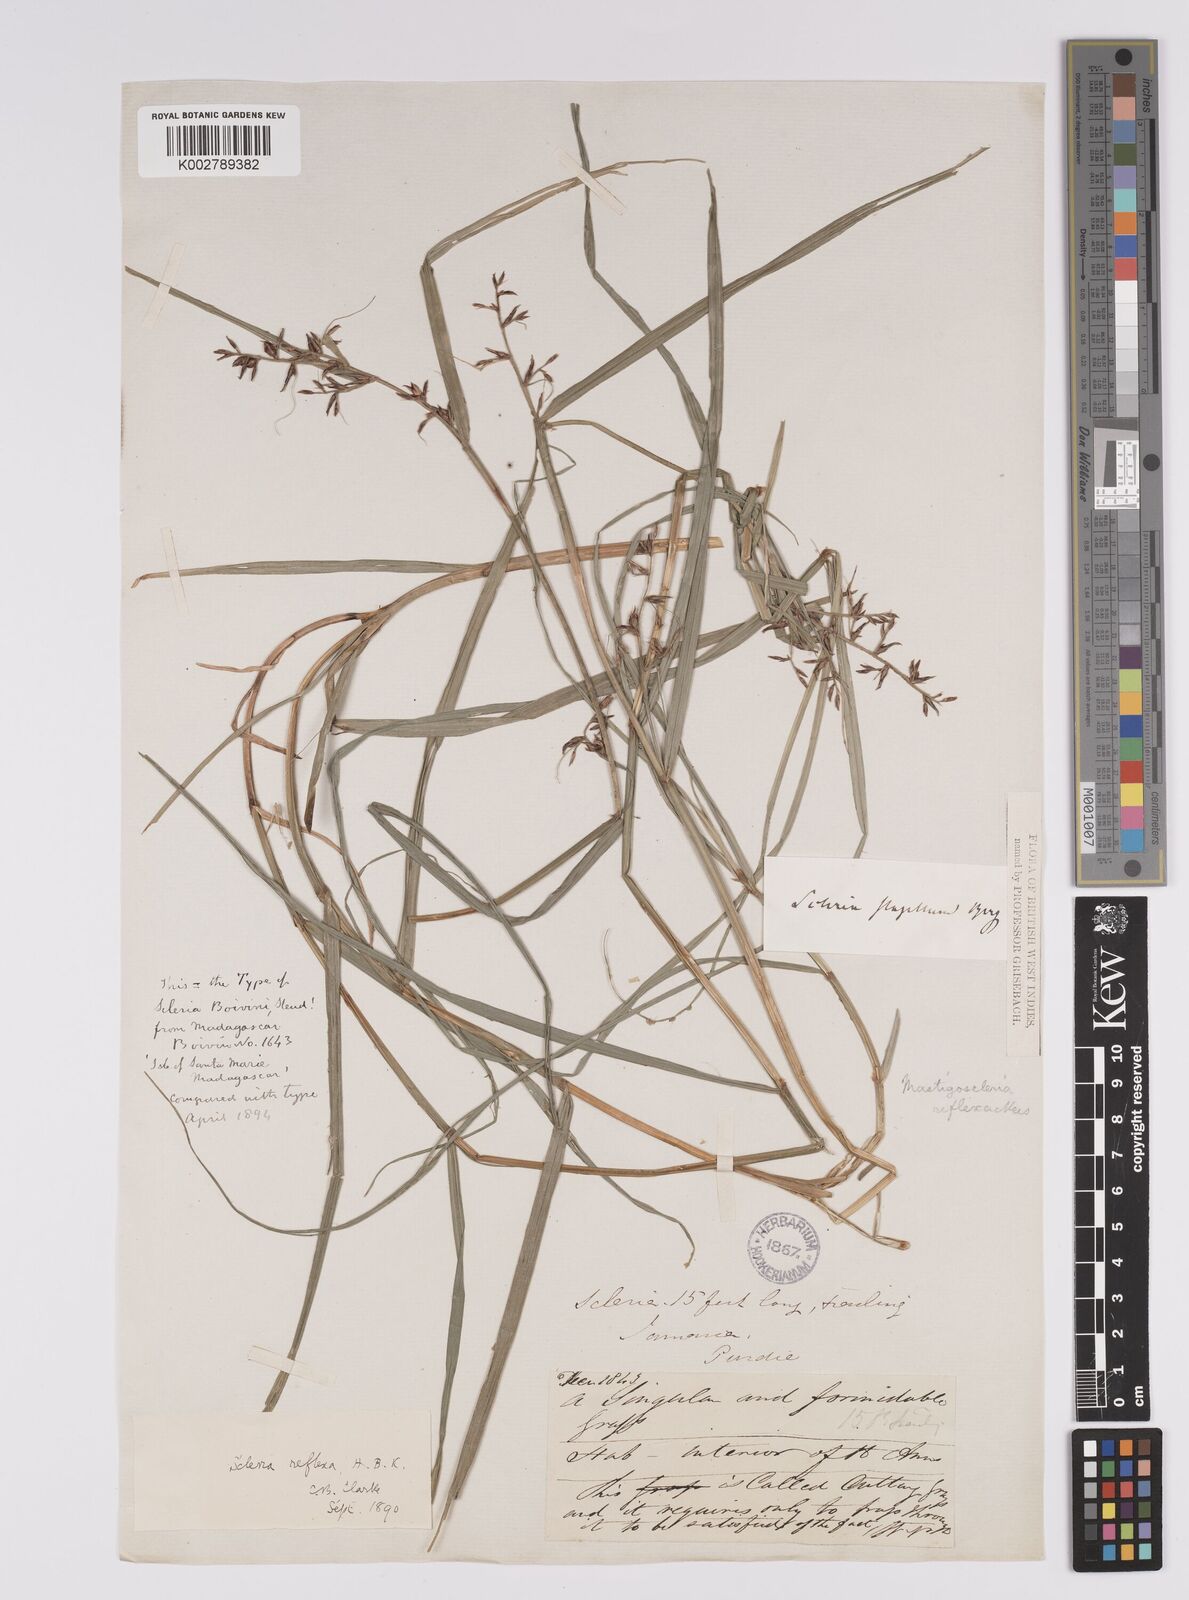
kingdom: Plantae
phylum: Tracheophyta
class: Liliopsida
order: Poales
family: Cyperaceae
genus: Scleria
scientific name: Scleria secans
